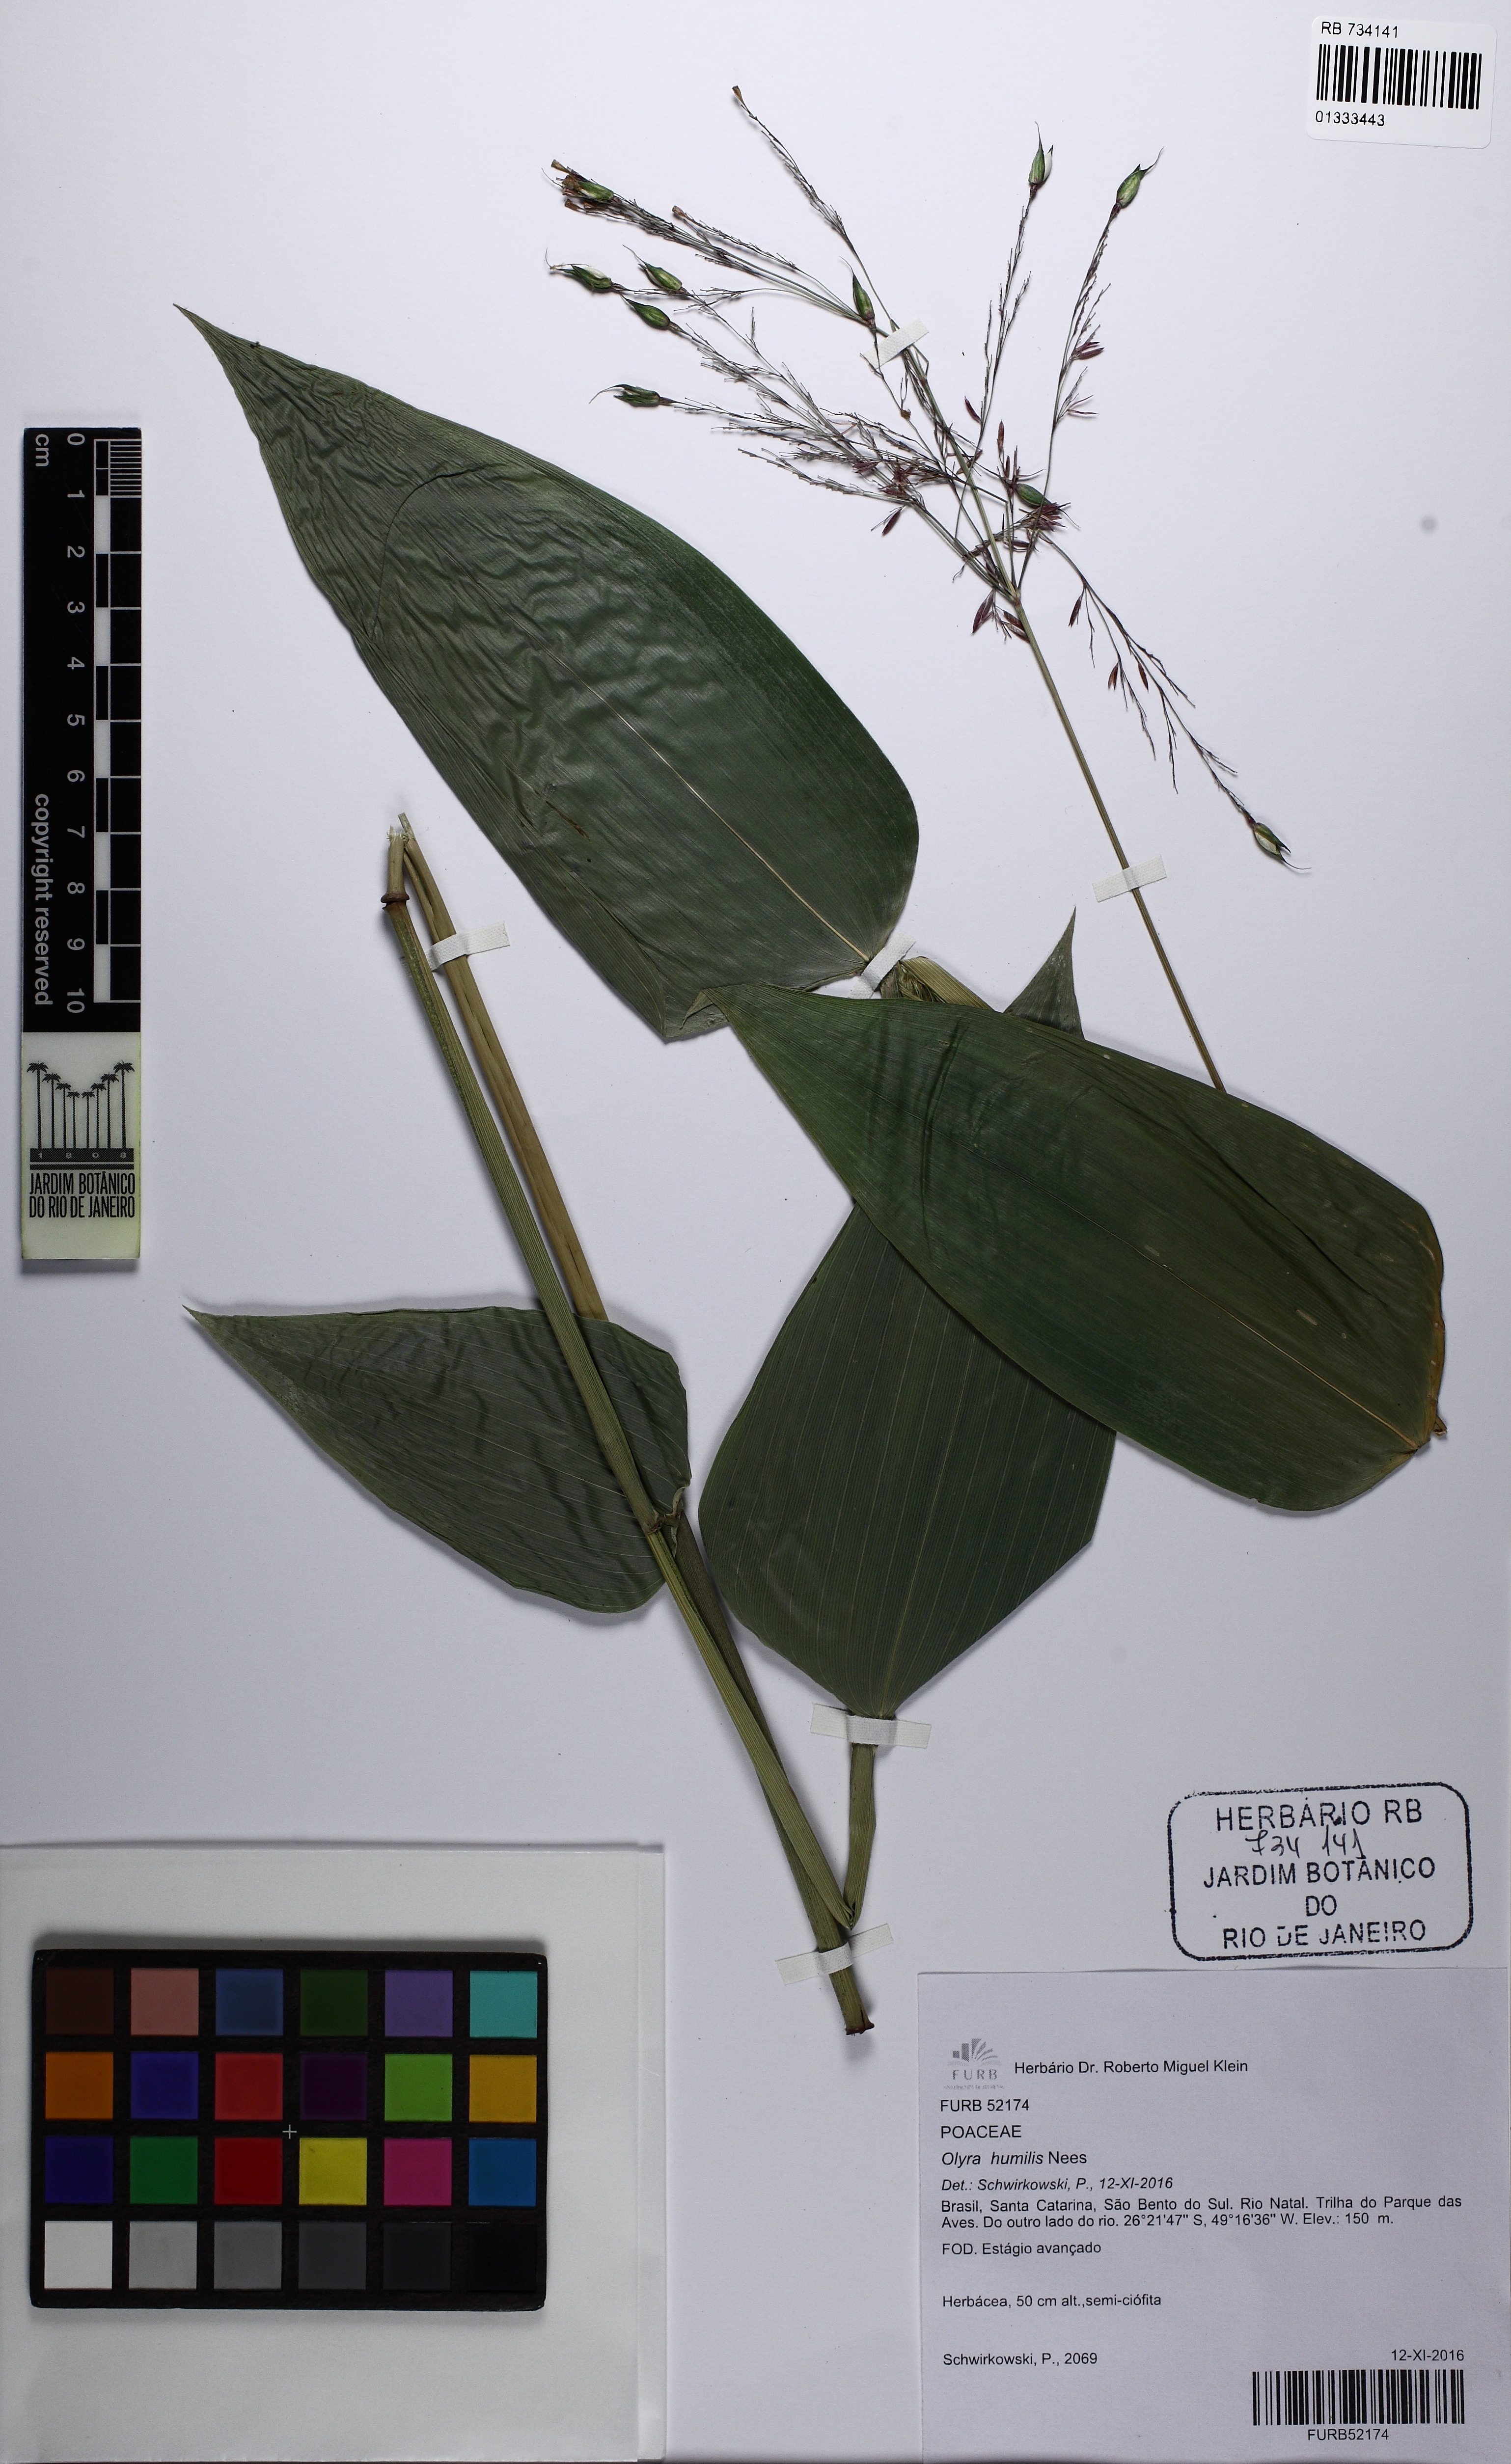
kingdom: Plantae
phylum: Tracheophyta
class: Liliopsida
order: Poales
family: Poaceae
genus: Olyra
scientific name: Olyra humilis
